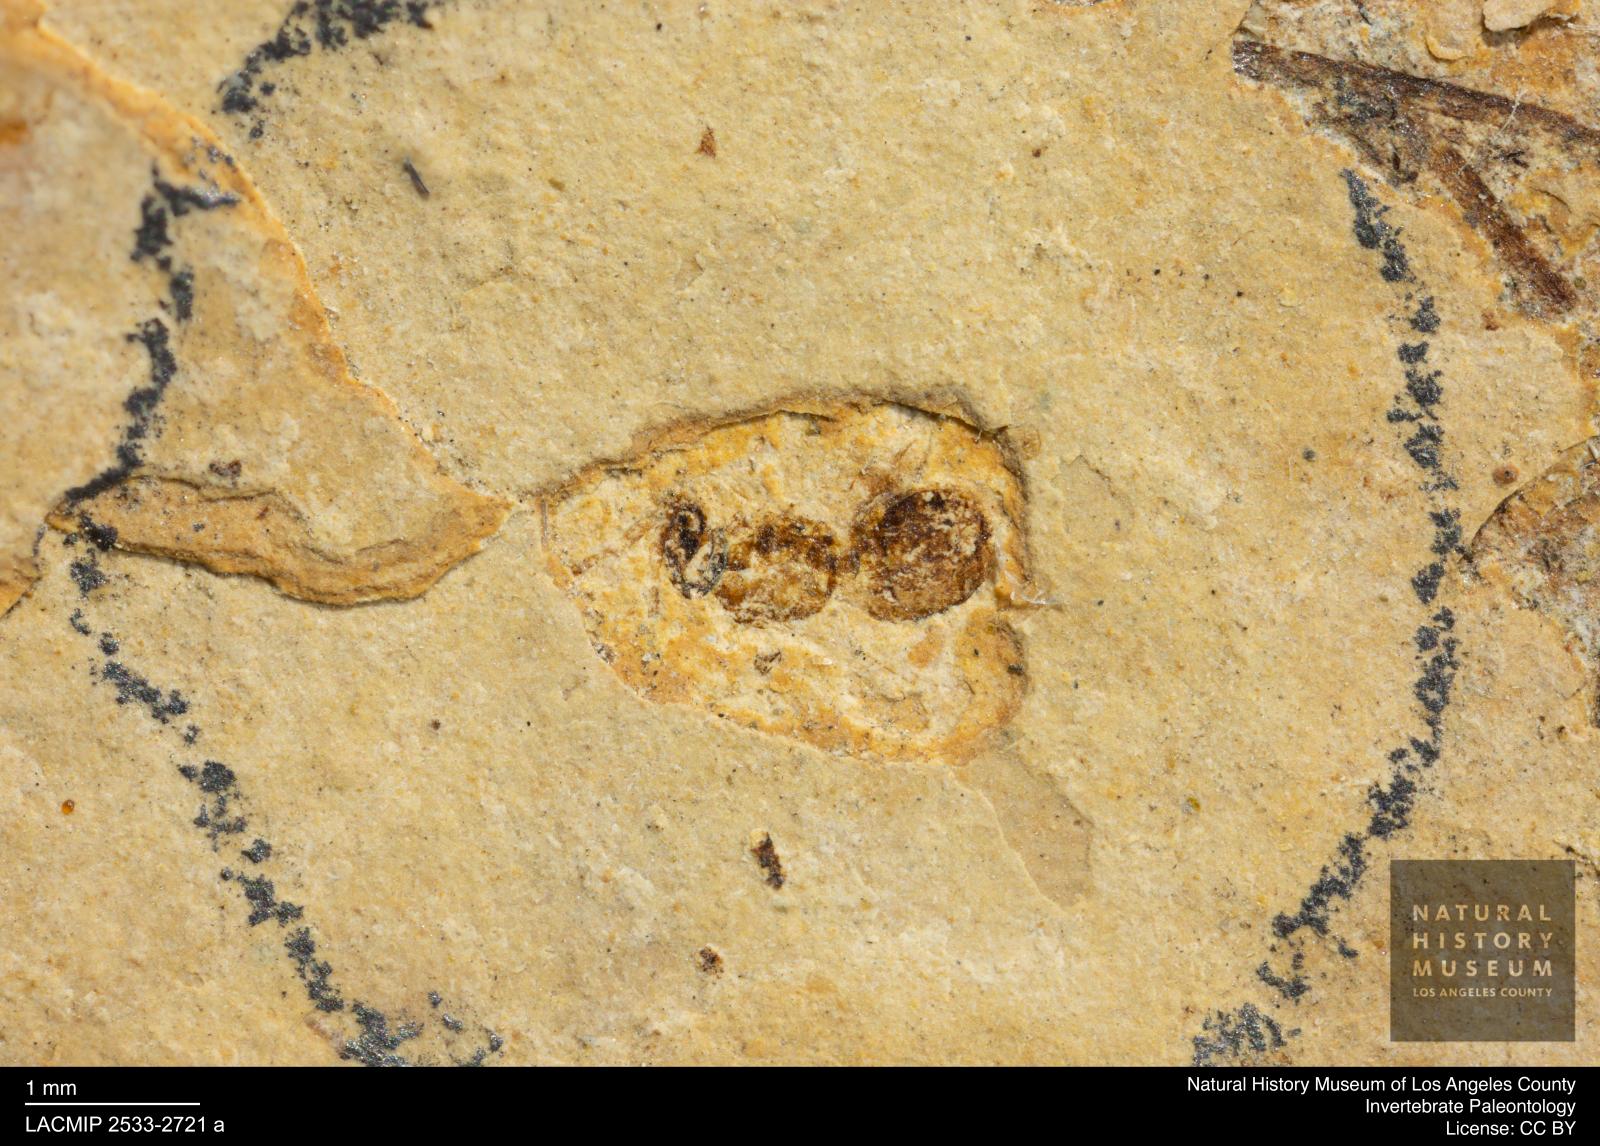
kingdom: Animalia
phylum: Arthropoda
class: Insecta
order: Hymenoptera
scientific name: Hymenoptera
